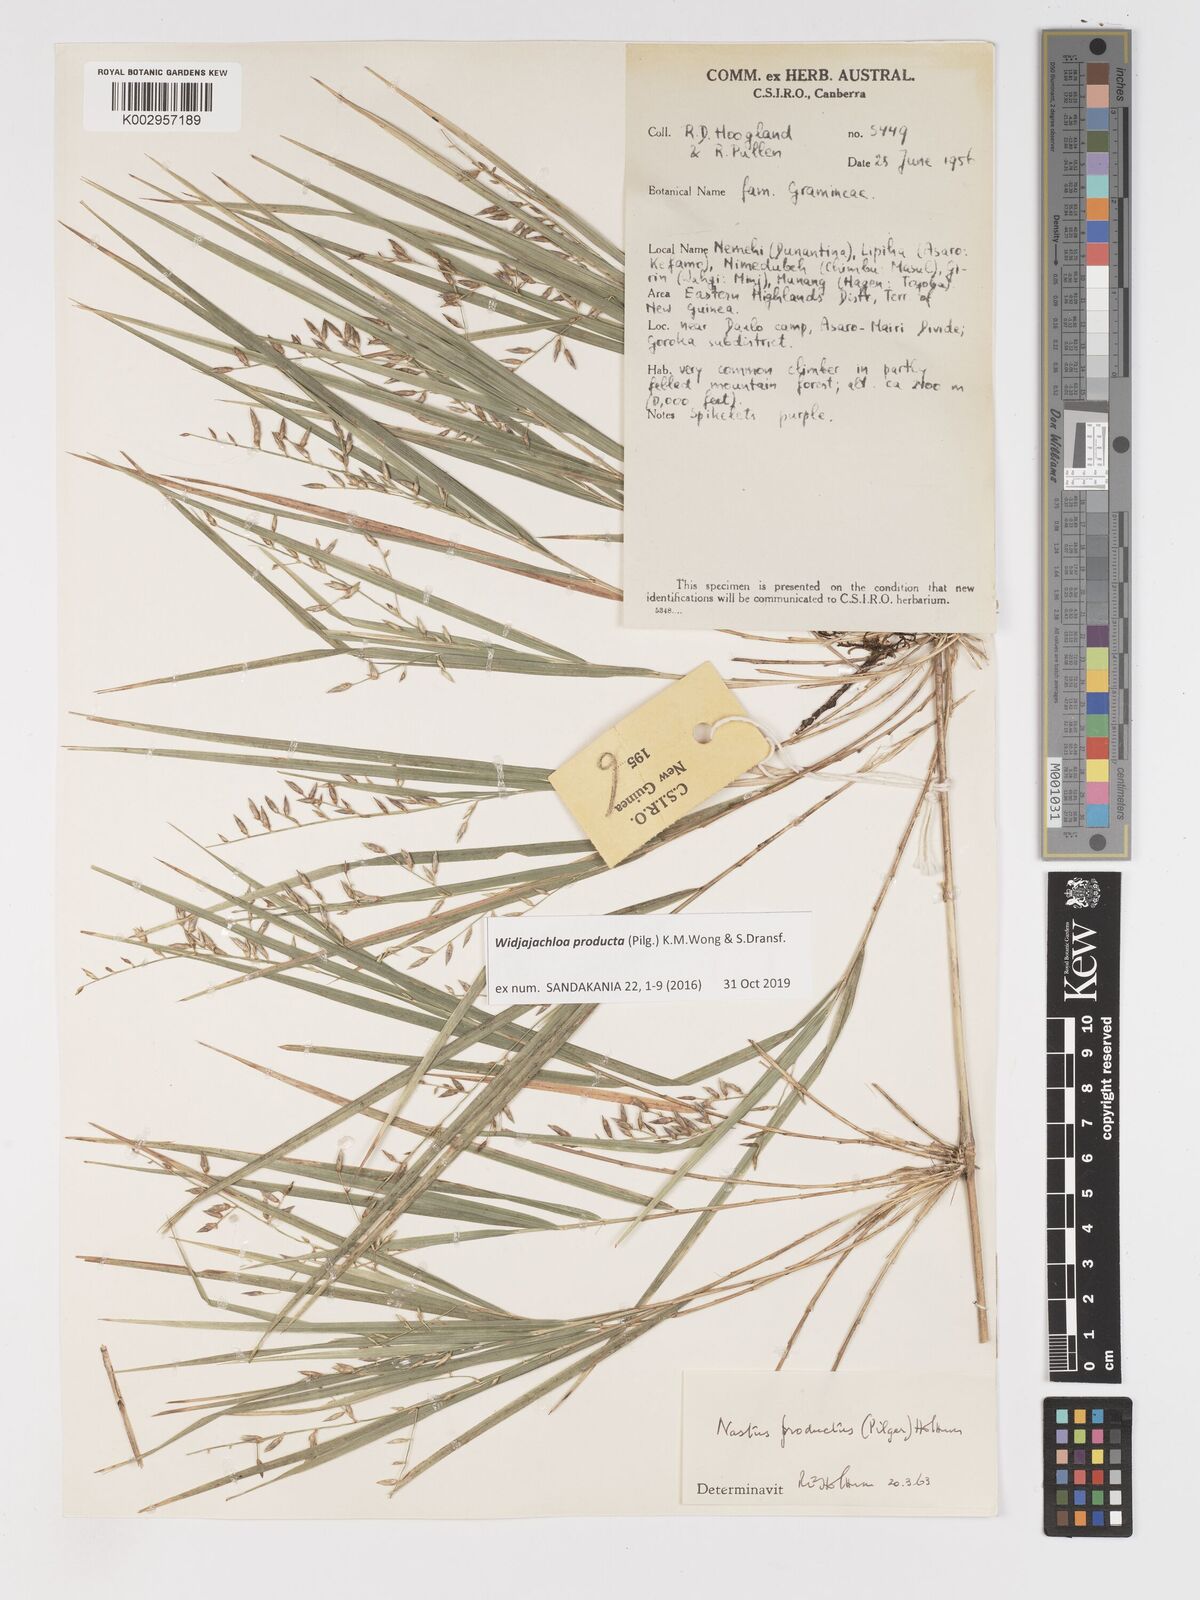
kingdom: Plantae
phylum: Tracheophyta
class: Liliopsida
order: Poales
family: Poaceae
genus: Widjajachloa
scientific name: Widjajachloa producta
